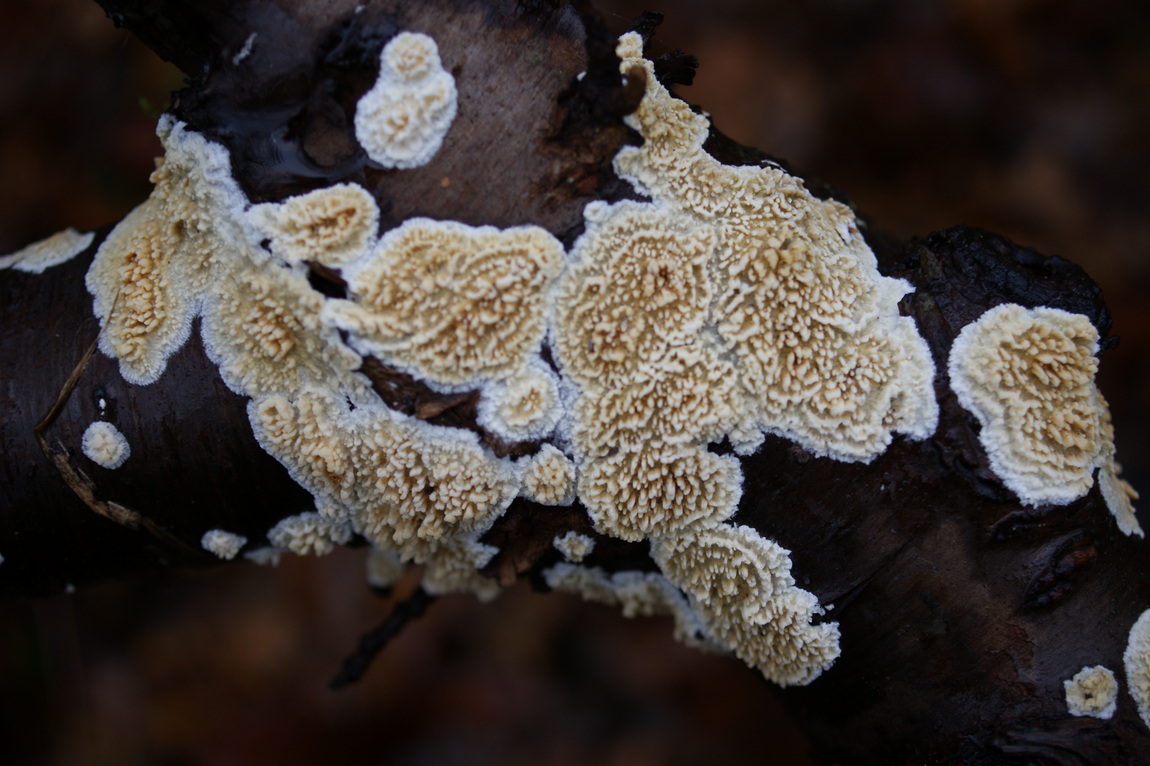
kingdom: Fungi
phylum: Basidiomycota
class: Agaricomycetes
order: Hymenochaetales
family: Schizoporaceae
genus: Xylodon
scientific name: Xylodon radula
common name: grovtandet kalkskind
